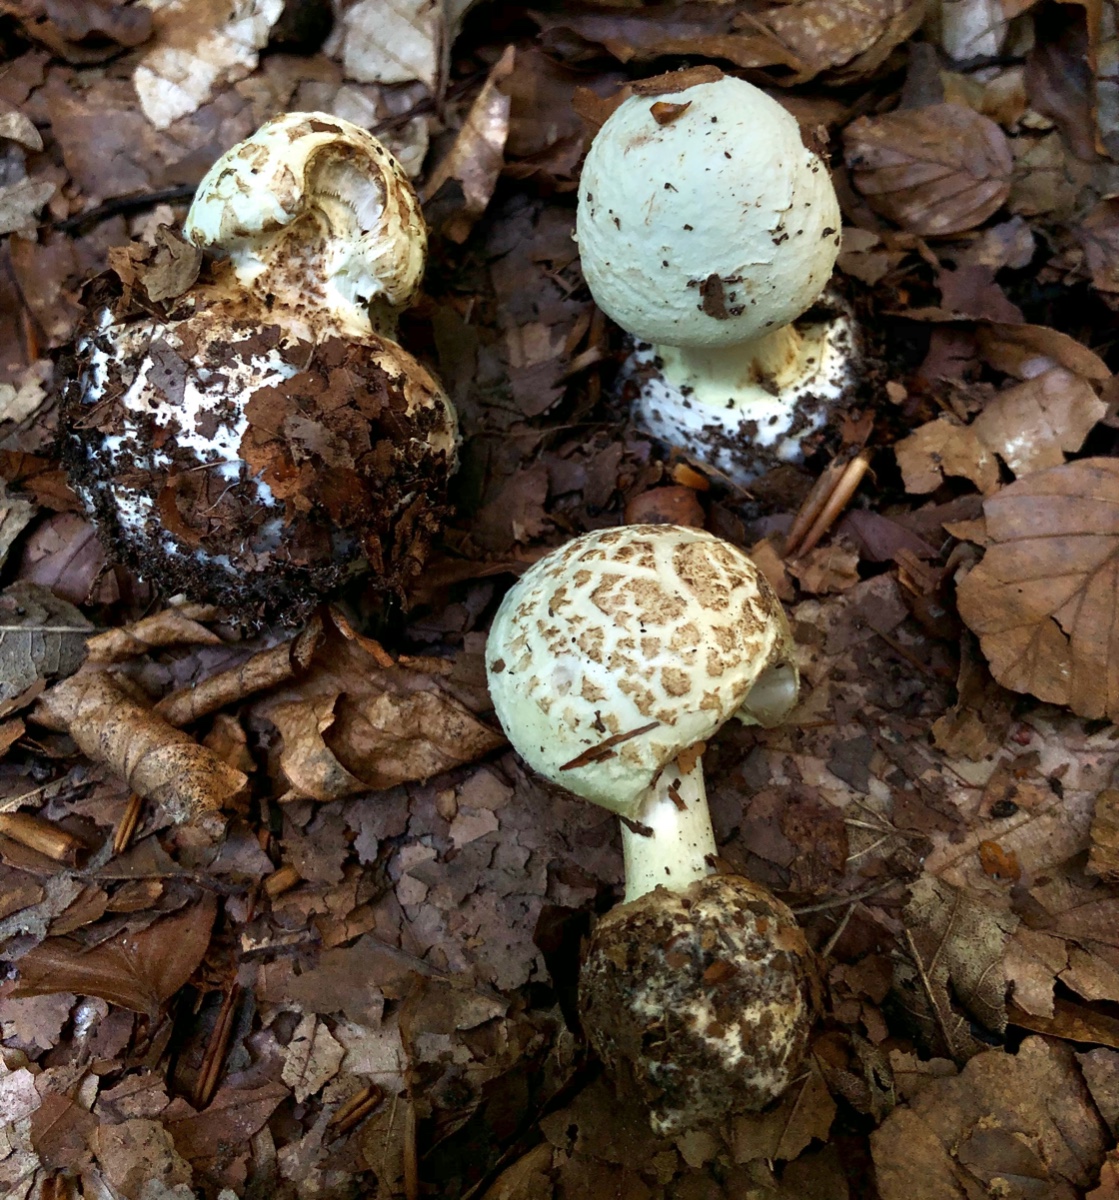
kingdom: Fungi
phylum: Basidiomycota
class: Agaricomycetes
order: Agaricales
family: Amanitaceae
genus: Amanita
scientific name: Amanita citrina
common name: kugleknoldet fluesvamp
